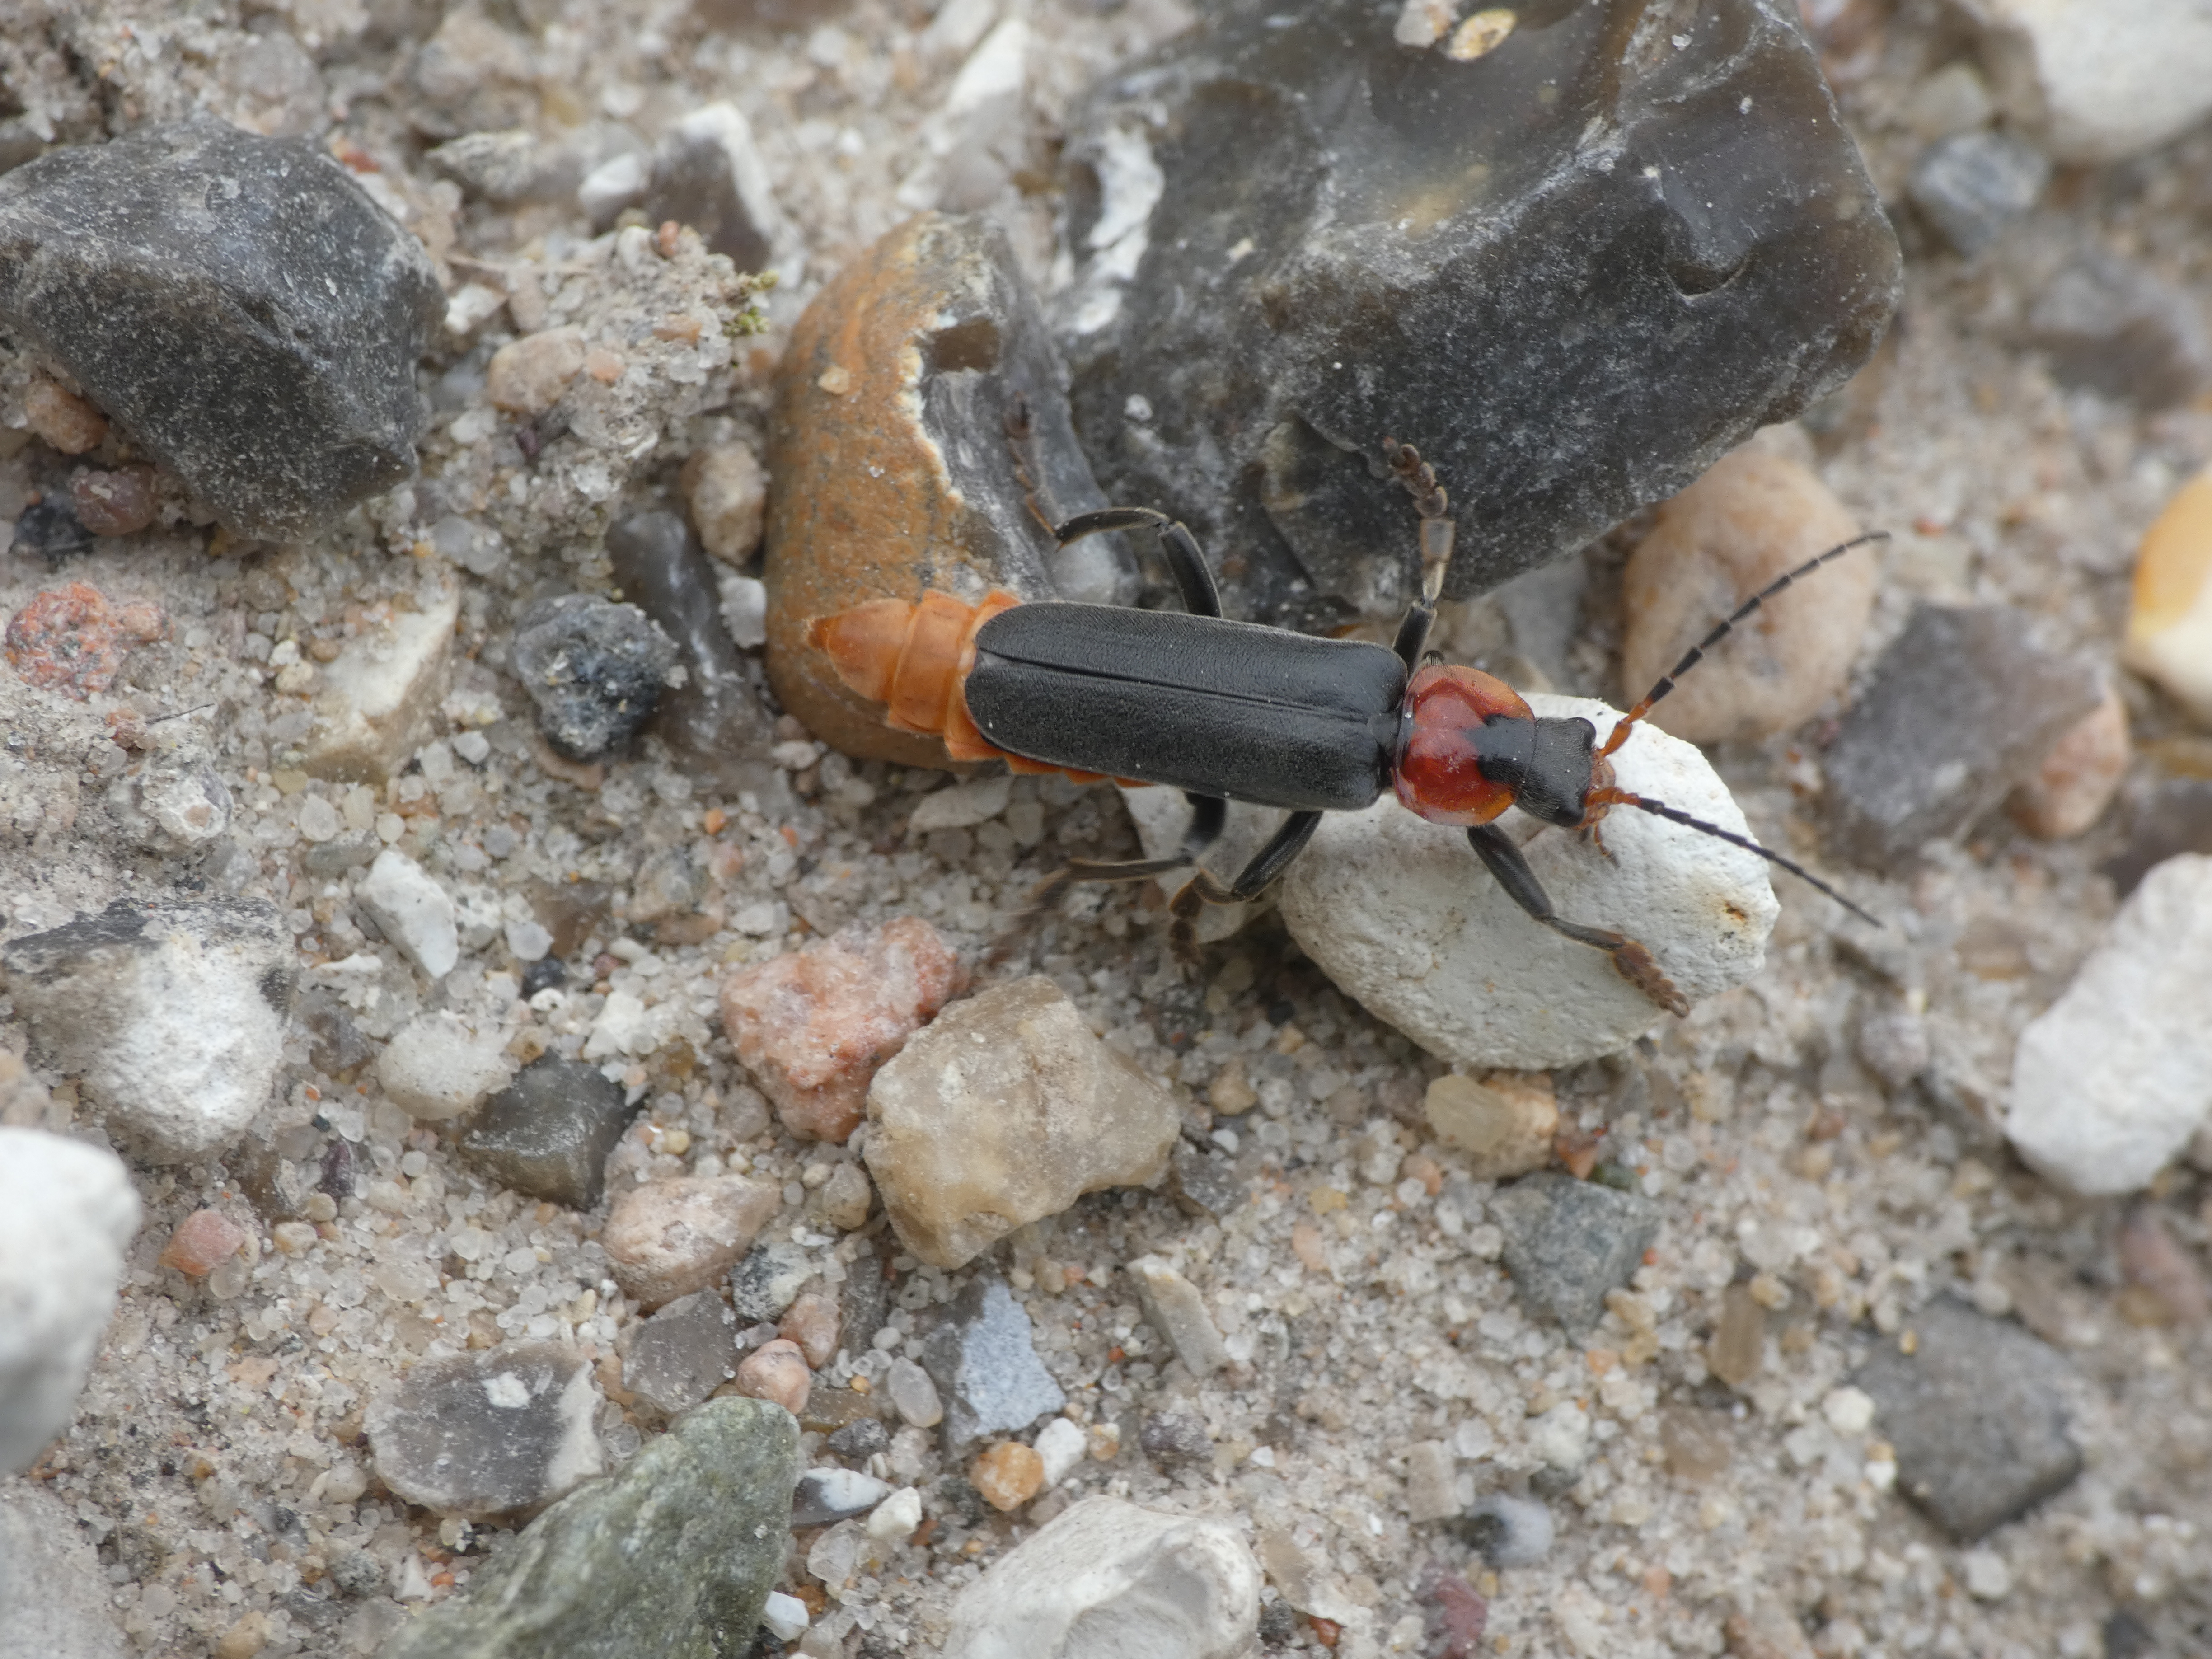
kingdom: Animalia
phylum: Arthropoda
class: Insecta
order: Coleoptera
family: Cantharidae
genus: Cantharis
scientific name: Cantharis fusca
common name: Stor blødvinge
